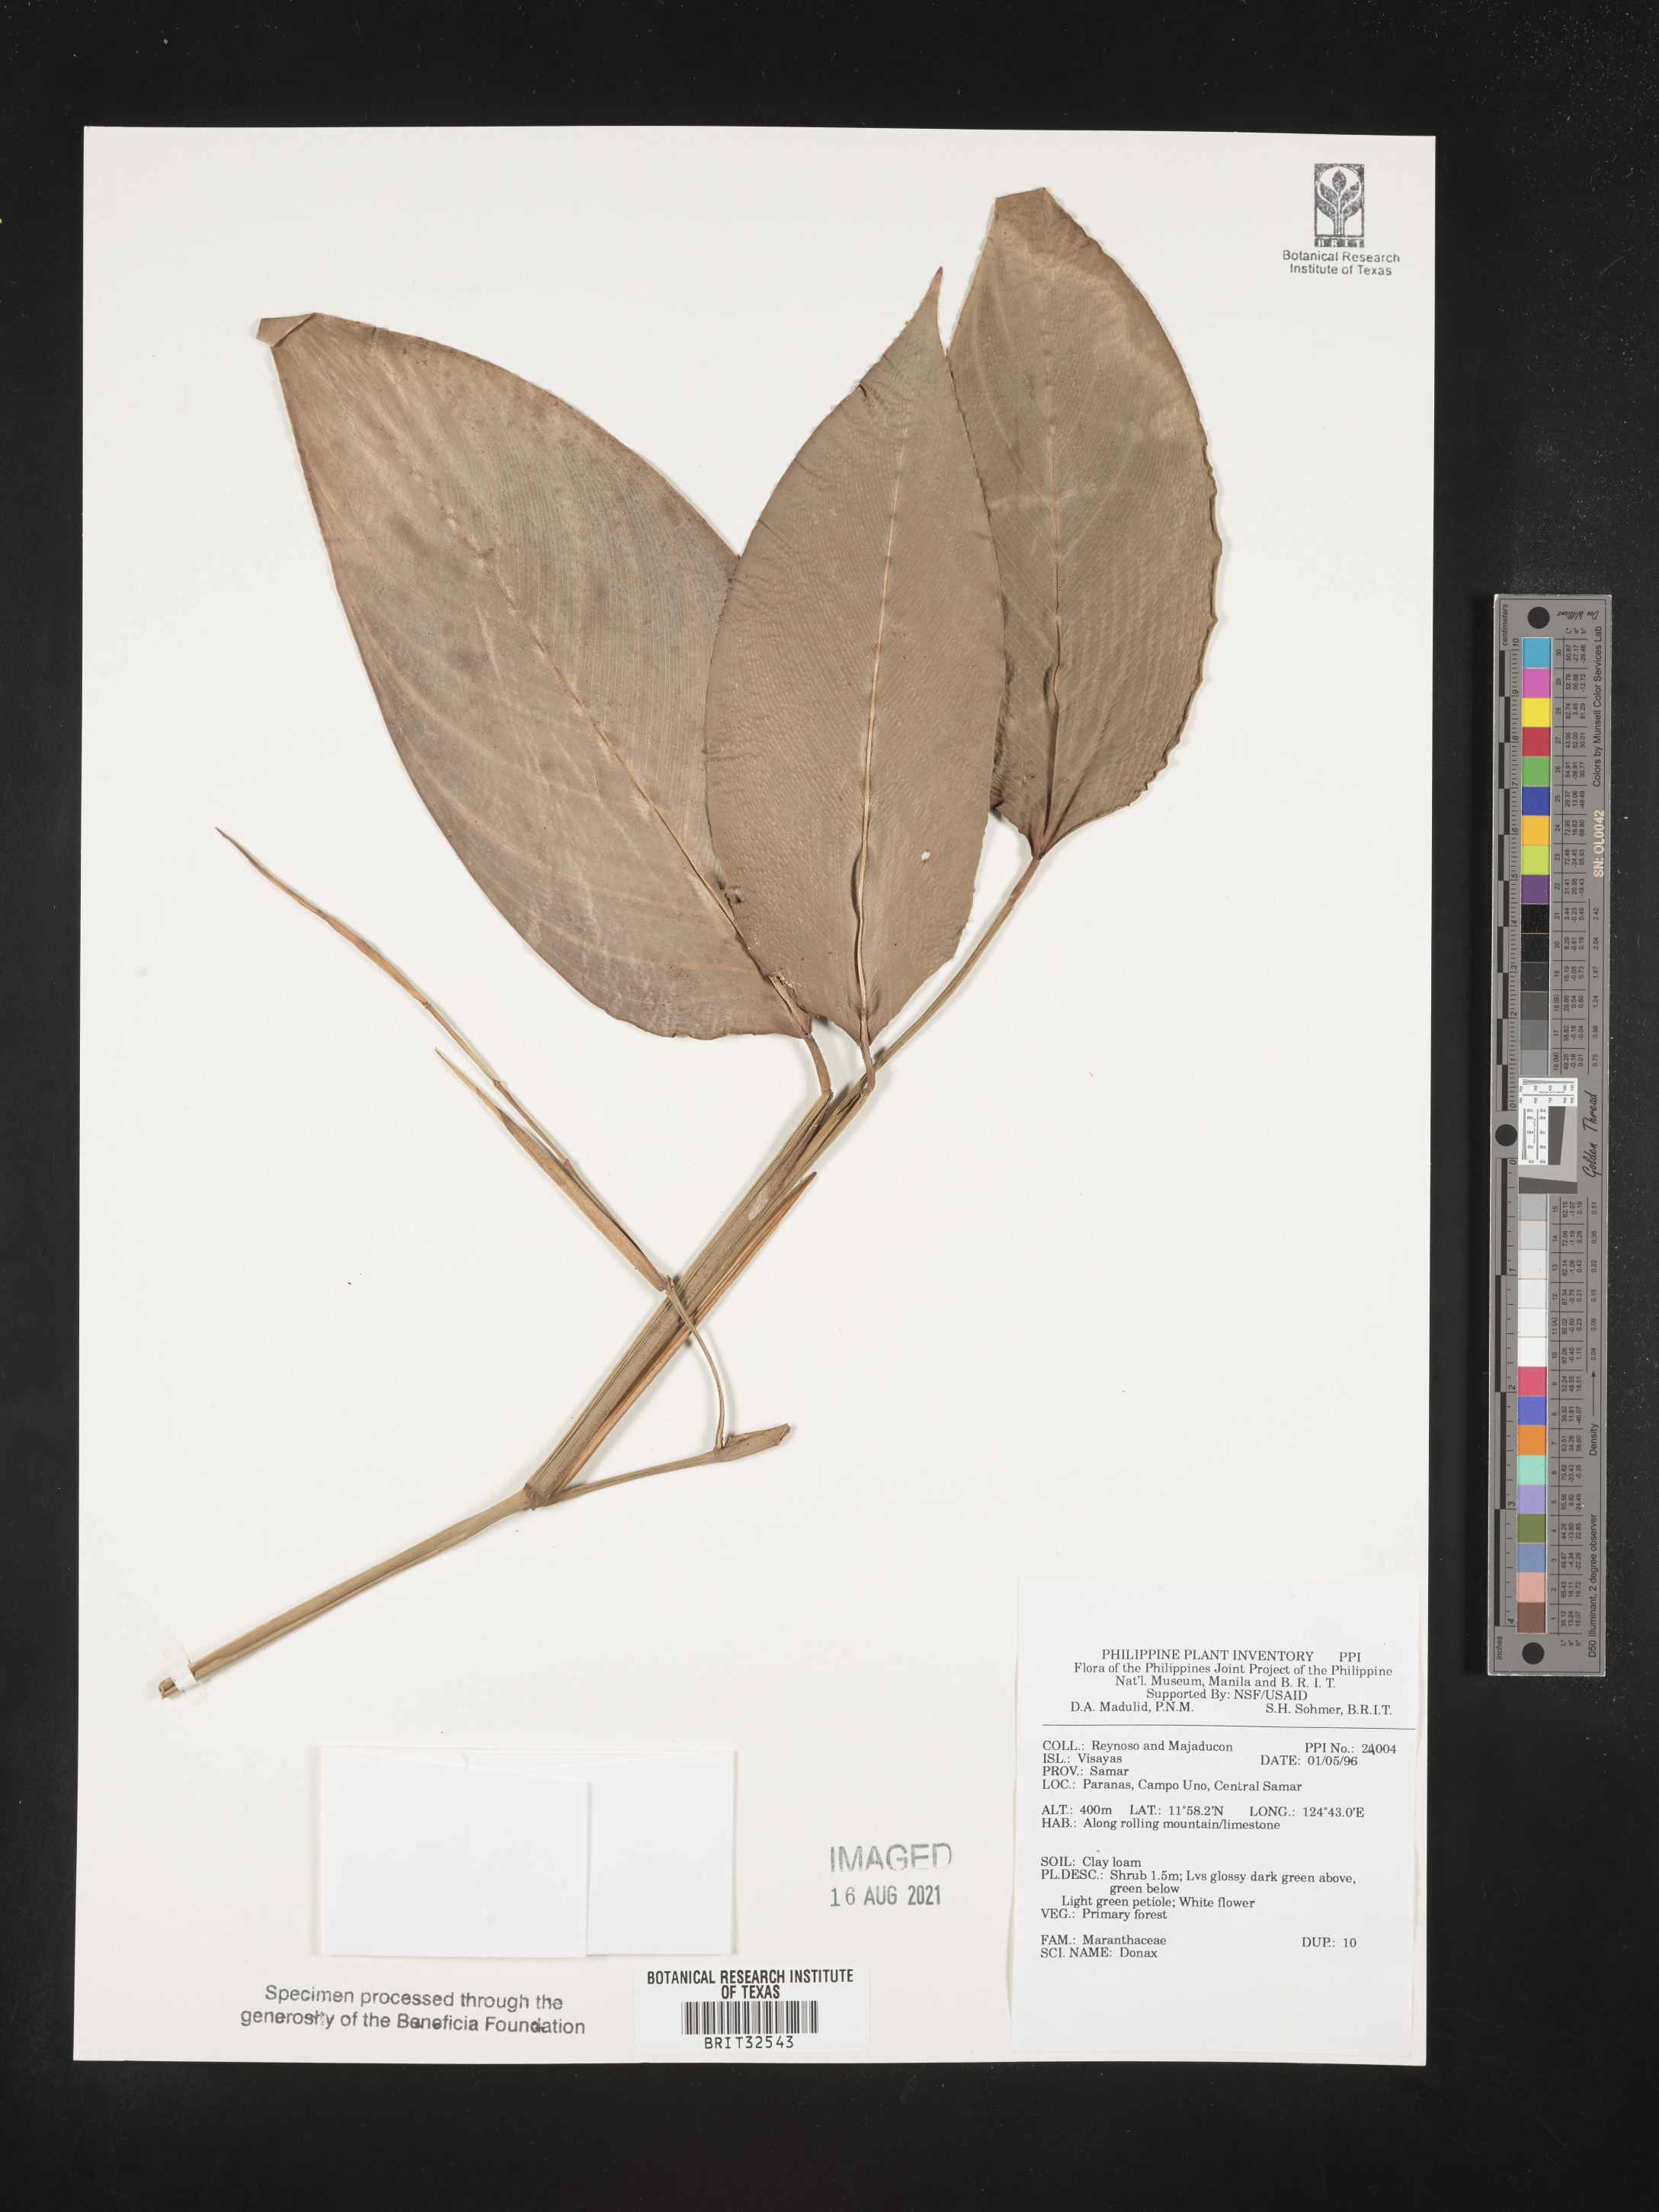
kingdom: Plantae
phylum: Tracheophyta
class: Liliopsida
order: Zingiberales
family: Marantaceae
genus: Donax
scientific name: Donax
